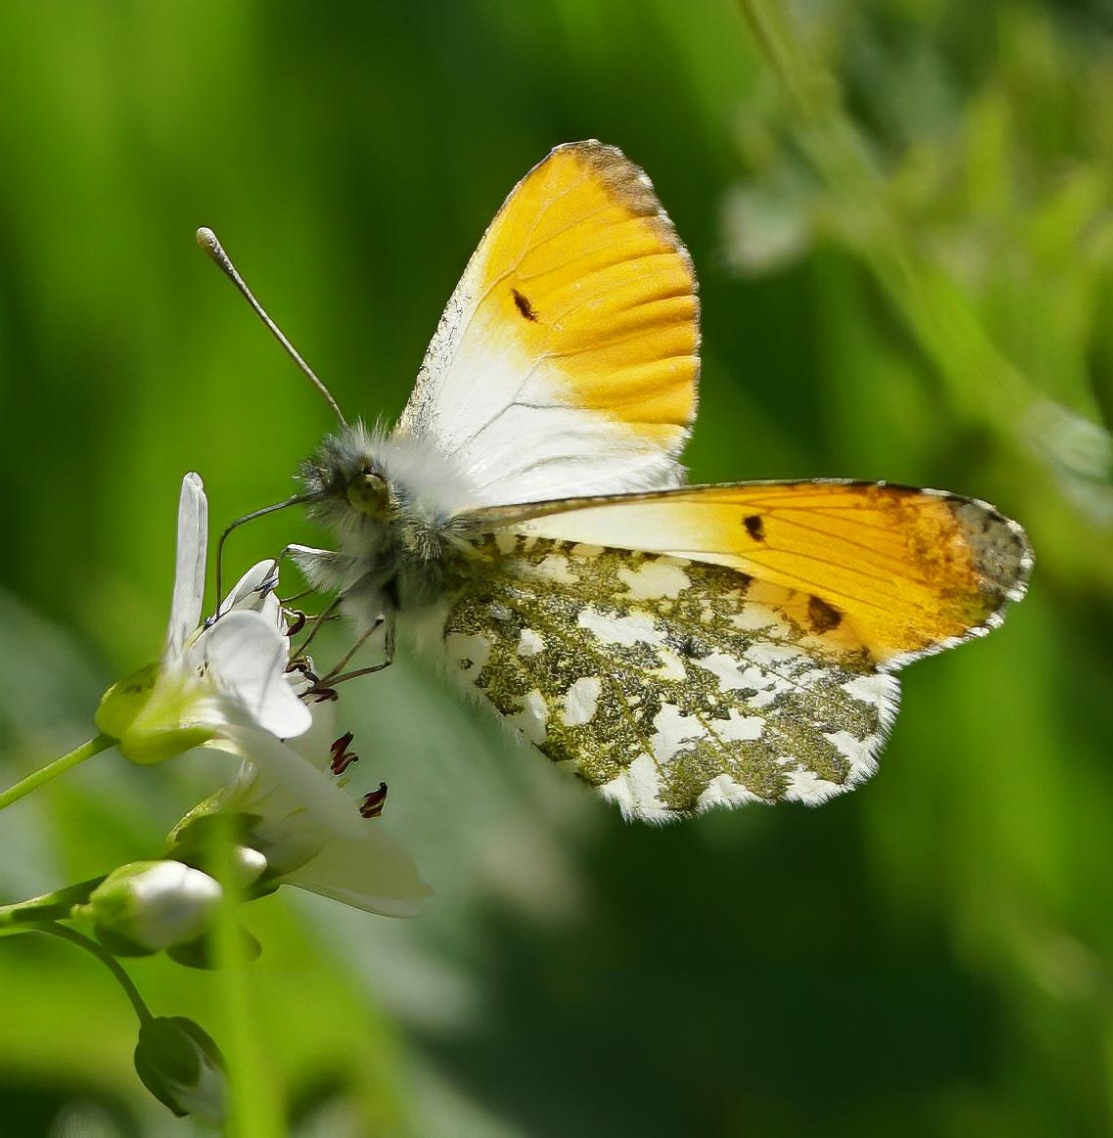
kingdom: Animalia
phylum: Arthropoda
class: Insecta
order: Lepidoptera
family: Pieridae
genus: Anthocharis
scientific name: Anthocharis cardamines
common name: Aurora
